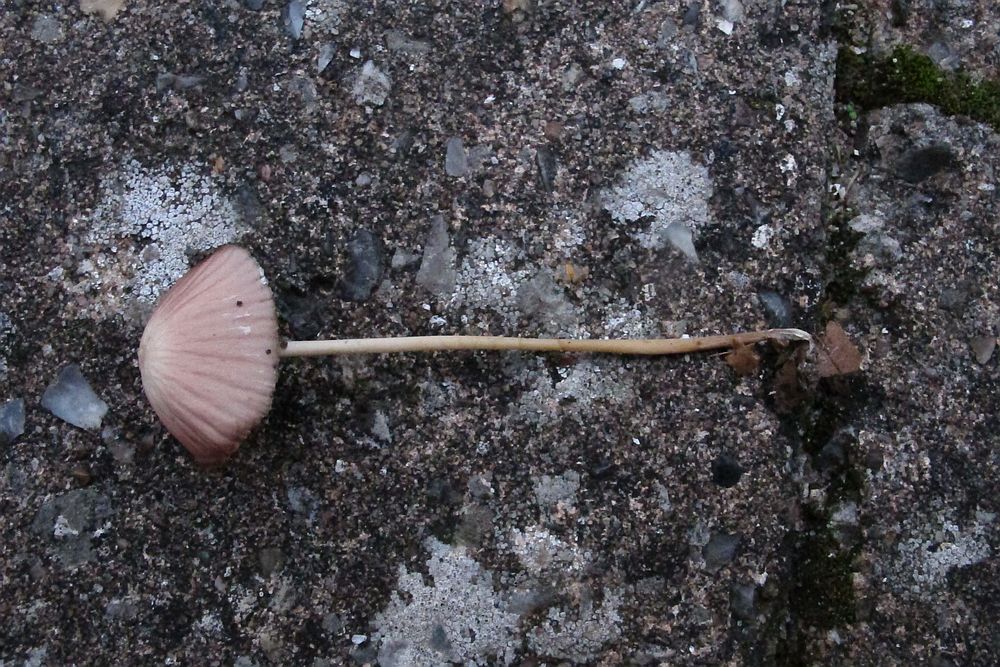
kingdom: Fungi
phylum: Basidiomycota
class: Agaricomycetes
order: Agaricales
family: Psathyrellaceae
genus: Psathyrella
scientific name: Psathyrella
